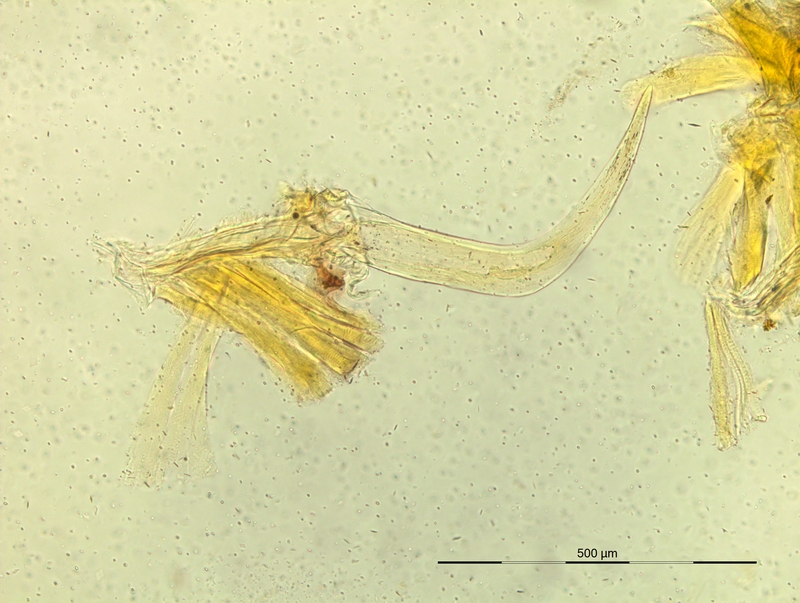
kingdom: Animalia
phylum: Arthropoda
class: Diplopoda
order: Chordeumatida
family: Craspedosomatidae
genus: Iulogona
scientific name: Iulogona ligurina
